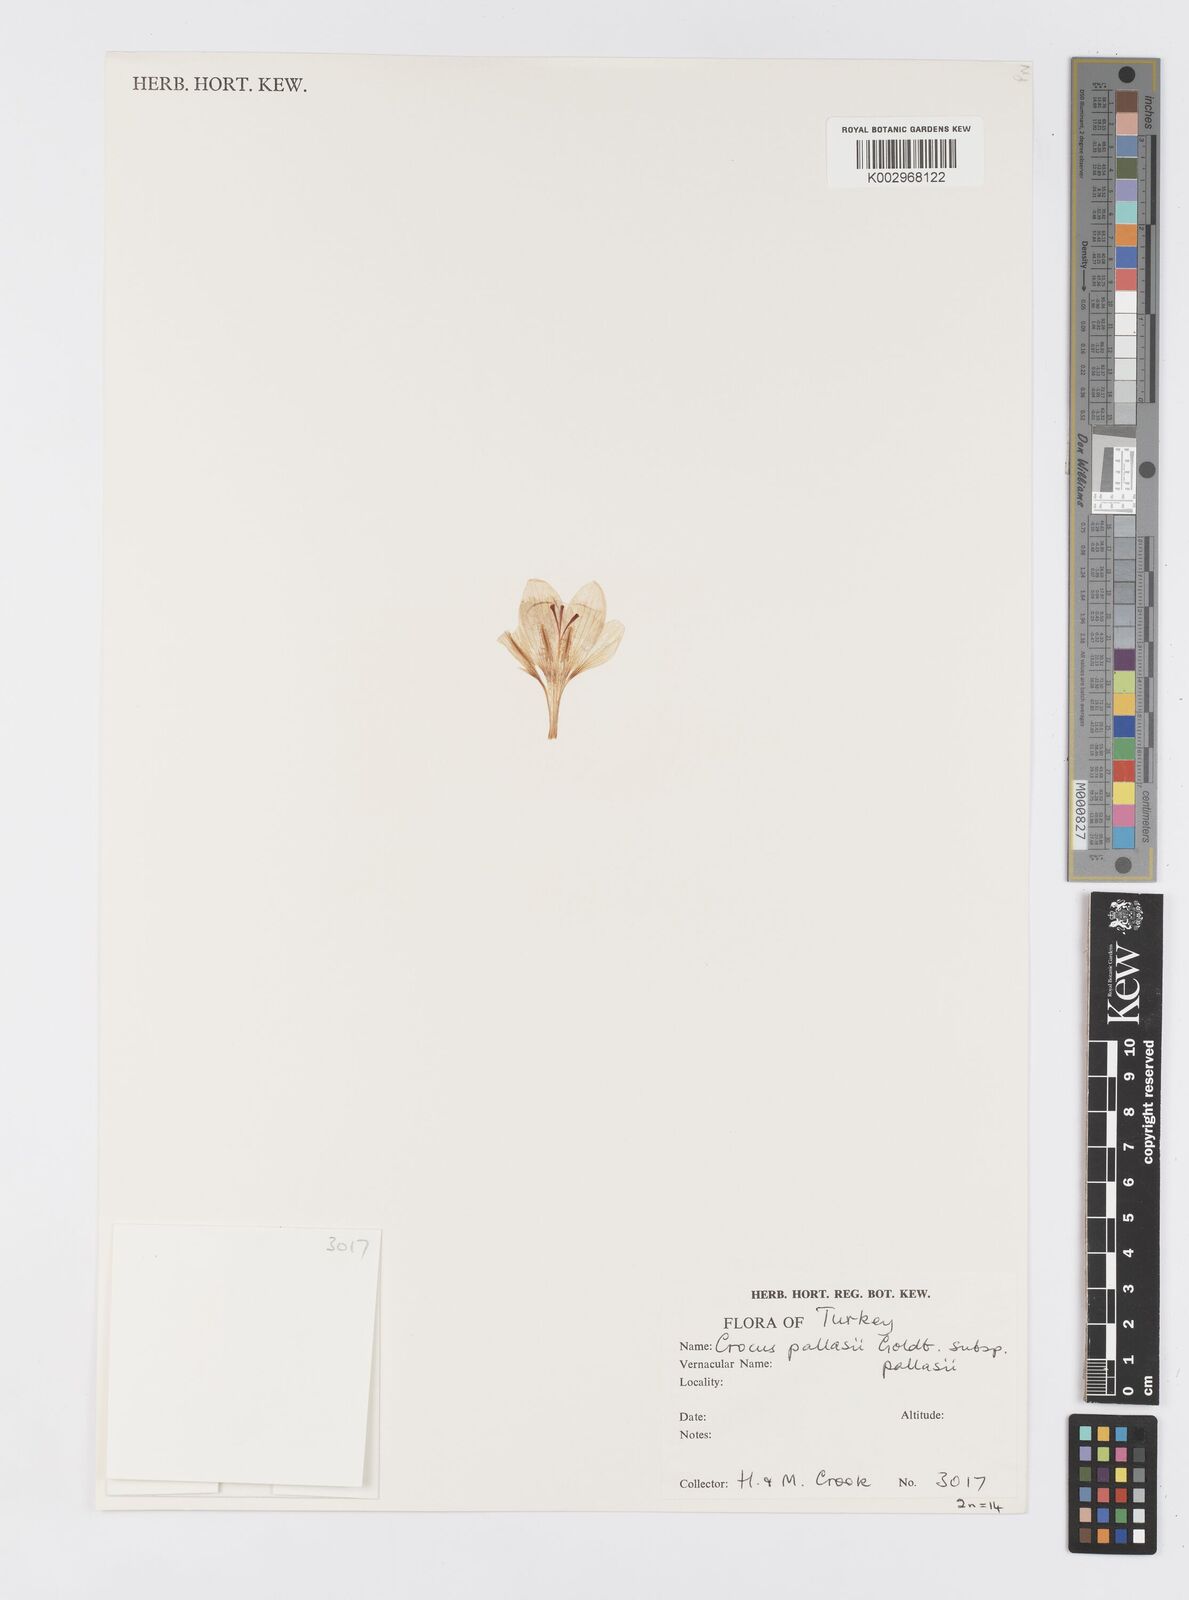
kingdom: Plantae
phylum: Tracheophyta
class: Liliopsida
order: Asparagales
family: Iridaceae
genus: Crocus
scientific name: Crocus
